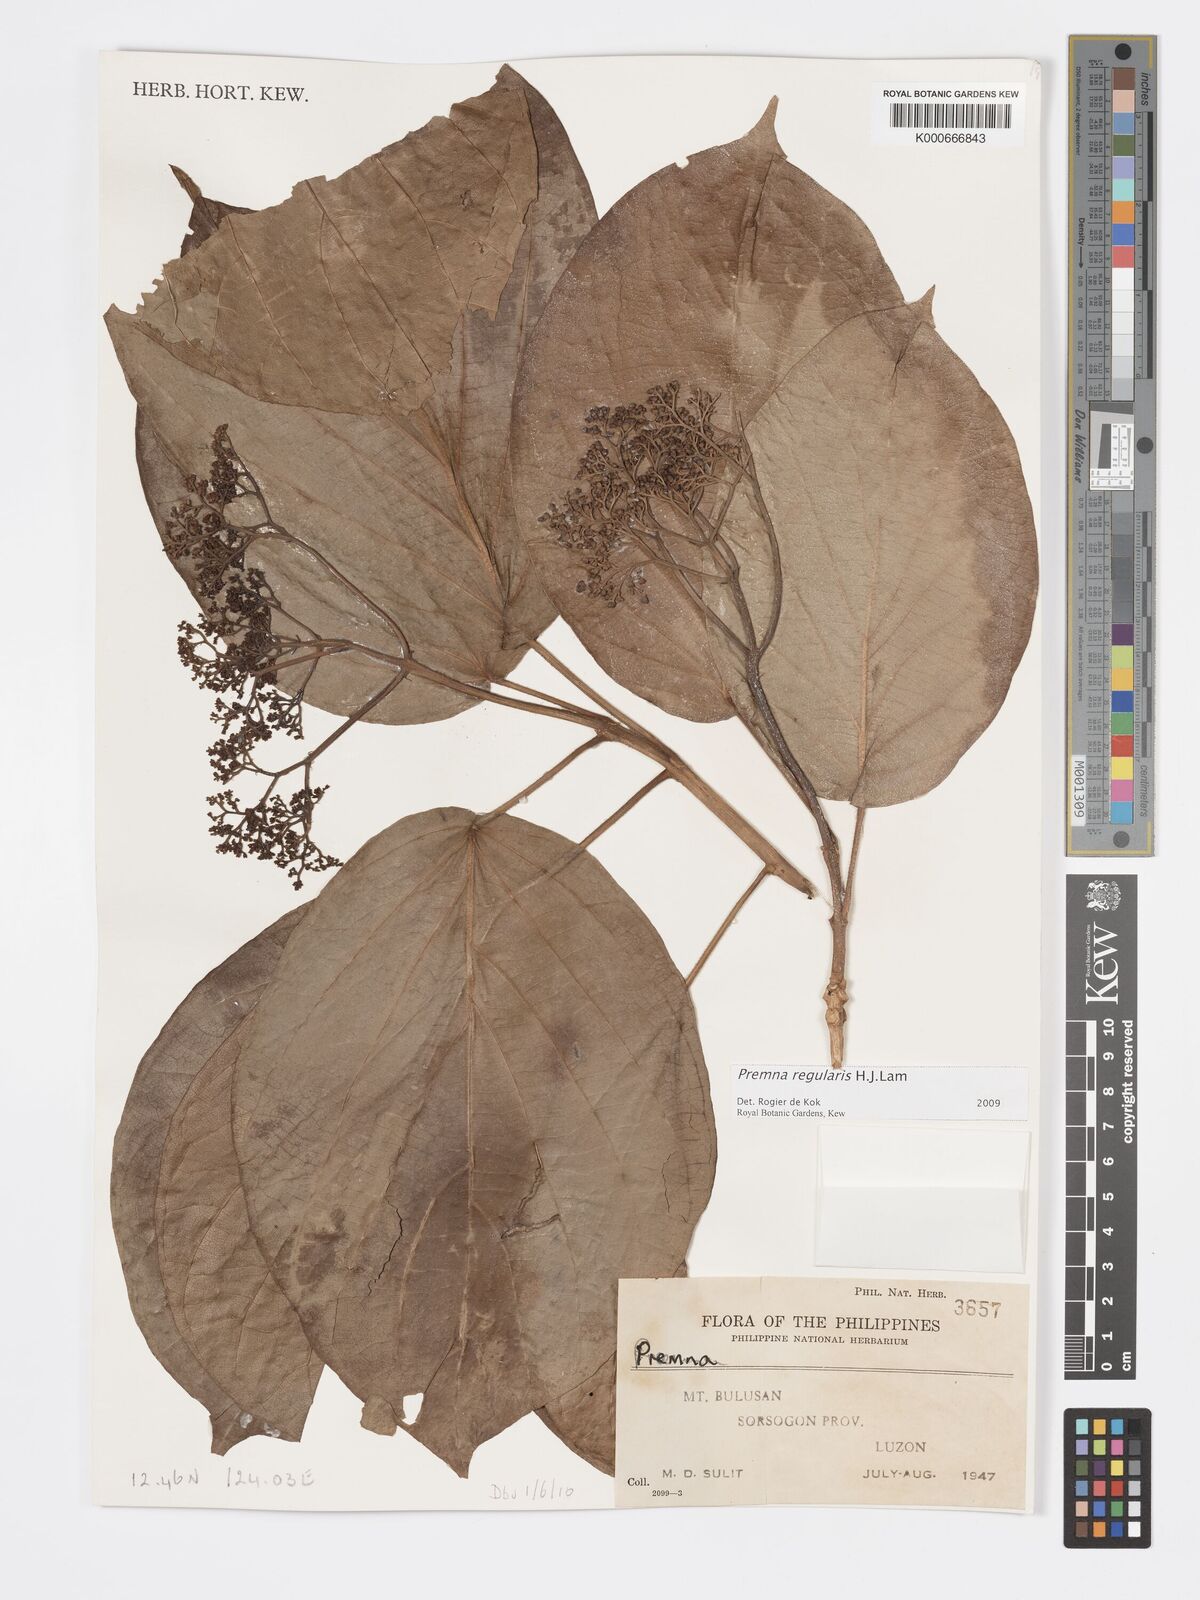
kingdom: Plantae
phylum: Tracheophyta
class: Magnoliopsida
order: Lamiales
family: Lamiaceae
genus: Premna
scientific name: Premna regularis
